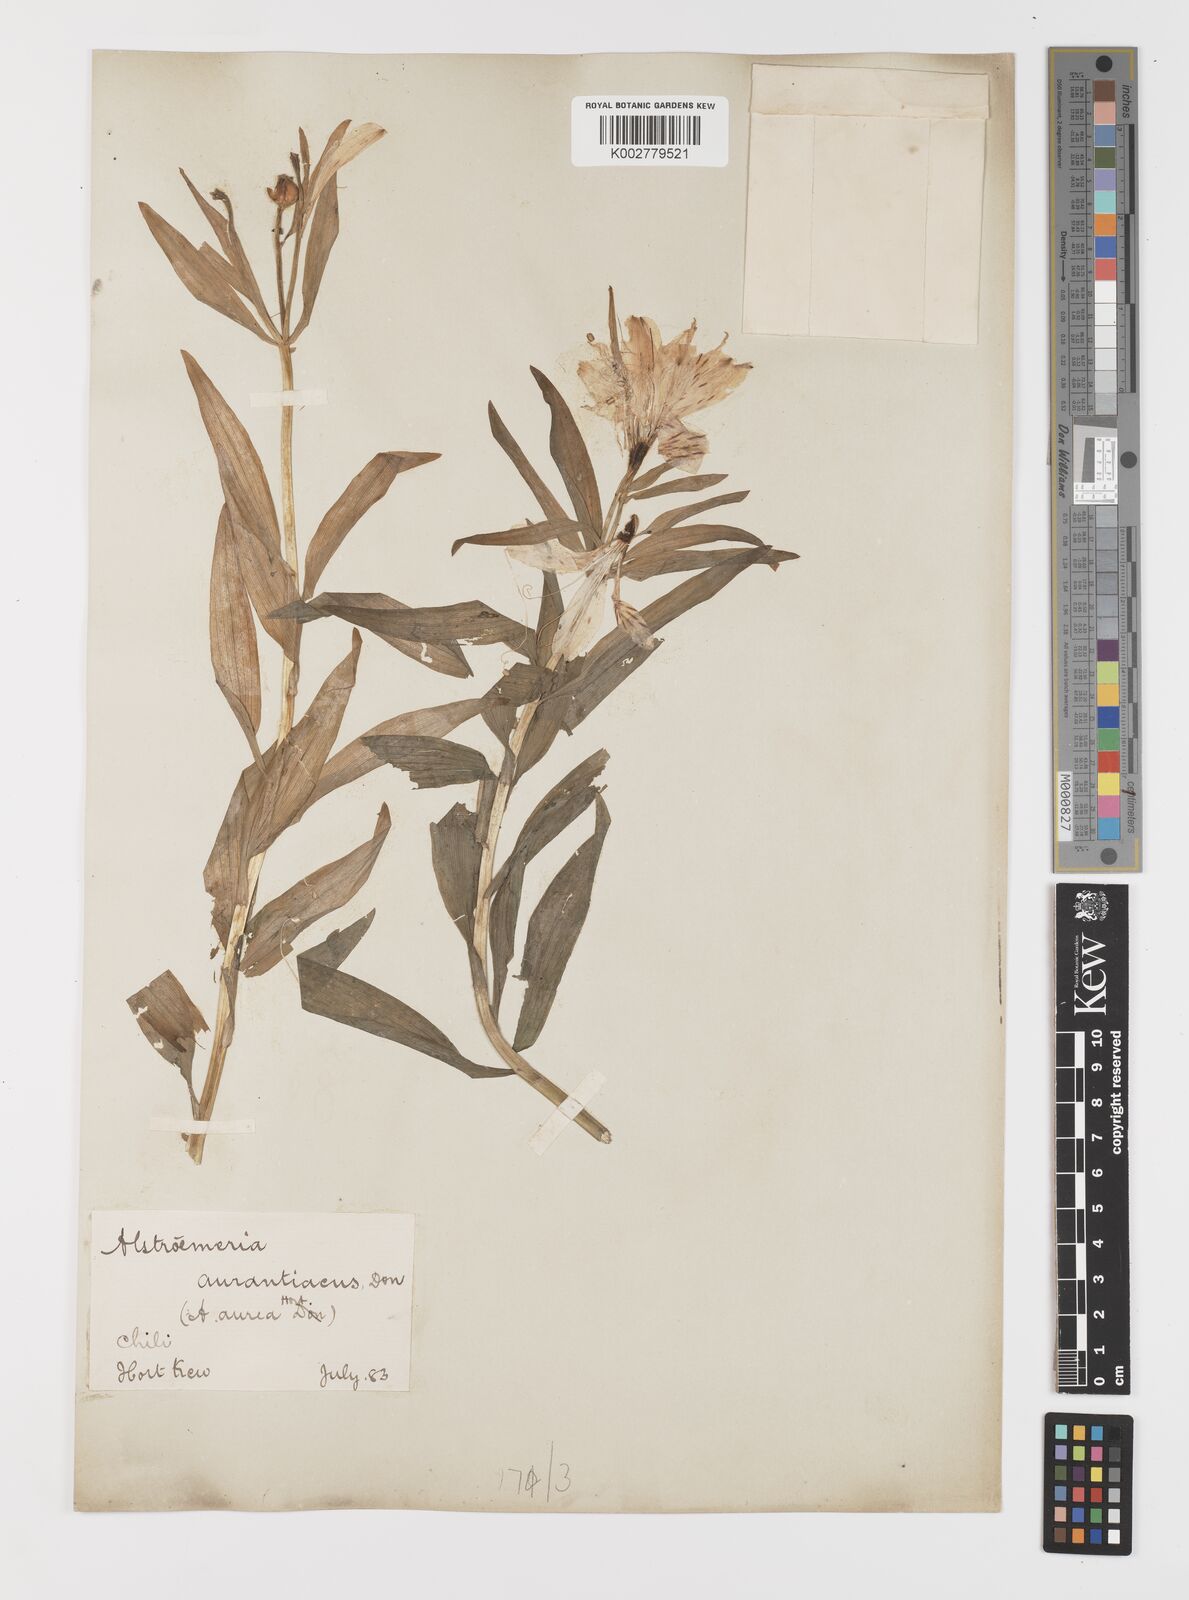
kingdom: Plantae
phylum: Tracheophyta
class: Liliopsida
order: Liliales
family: Alstroemeriaceae
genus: Alstroemeria
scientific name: Alstroemeria aurea
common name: Peruvian lily
